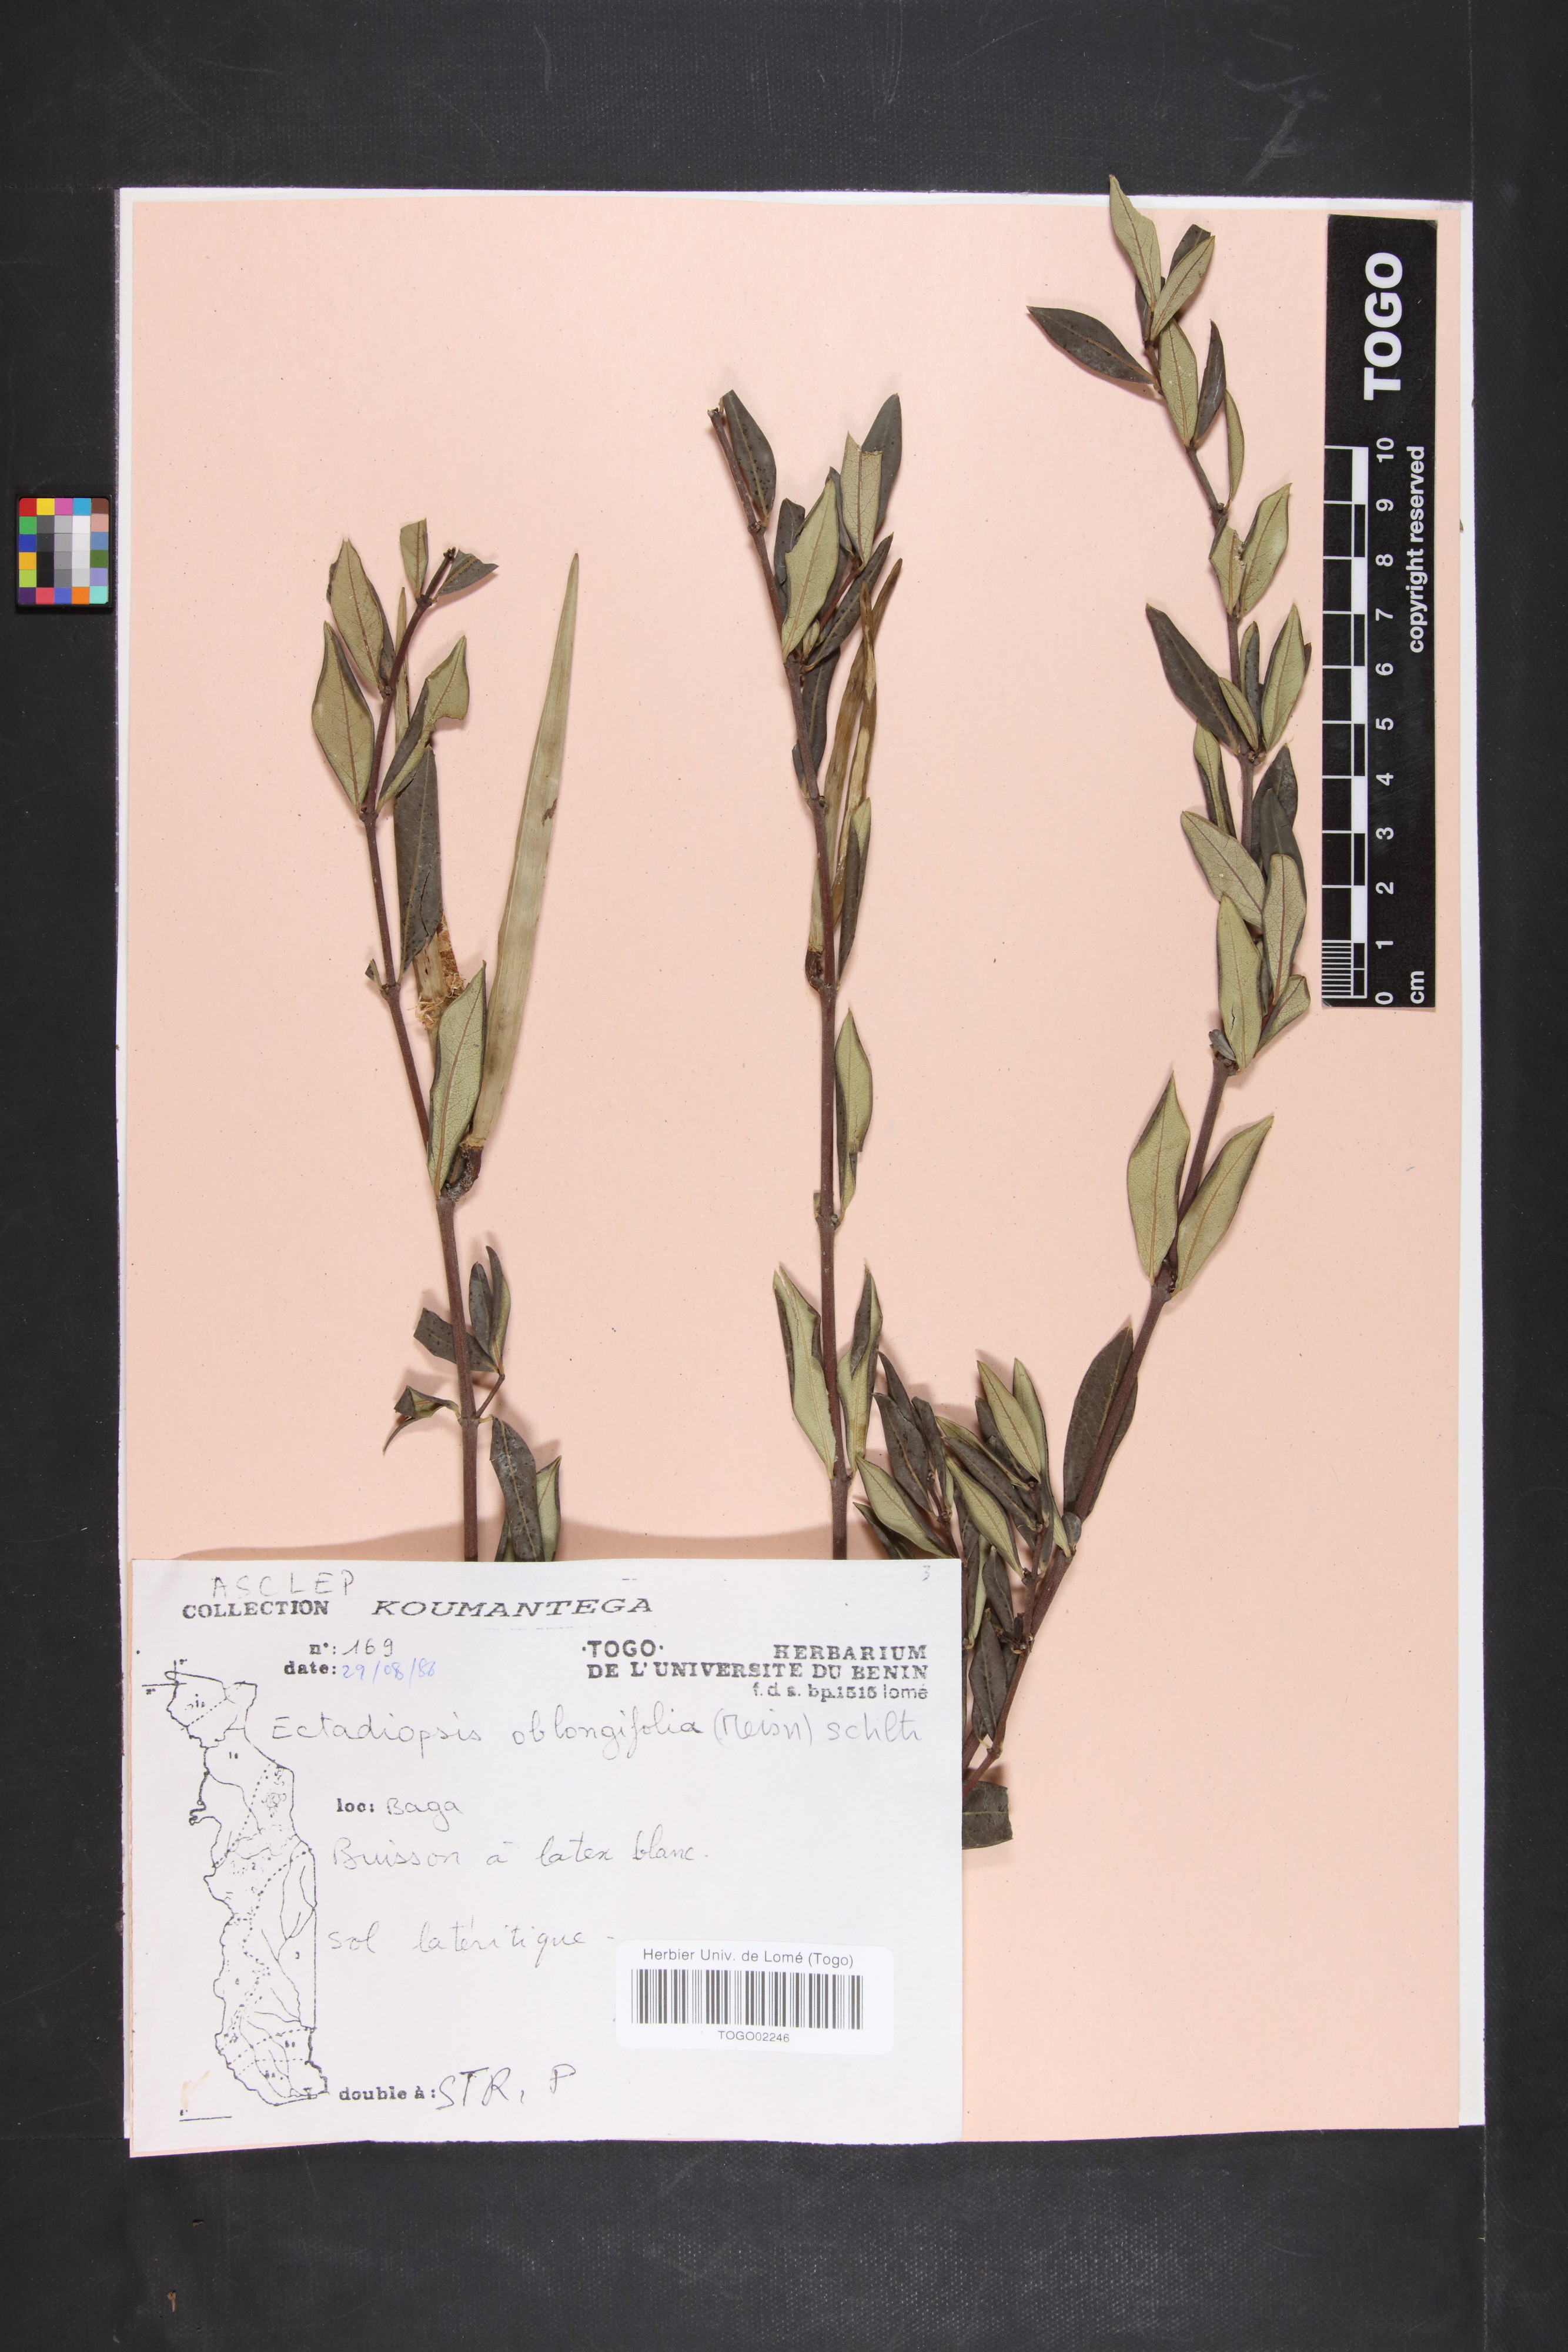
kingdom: Plantae
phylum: Tracheophyta
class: Magnoliopsida
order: Gentianales
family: Apocynaceae
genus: Cryptolepis
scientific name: Cryptolepis oblongifolia
